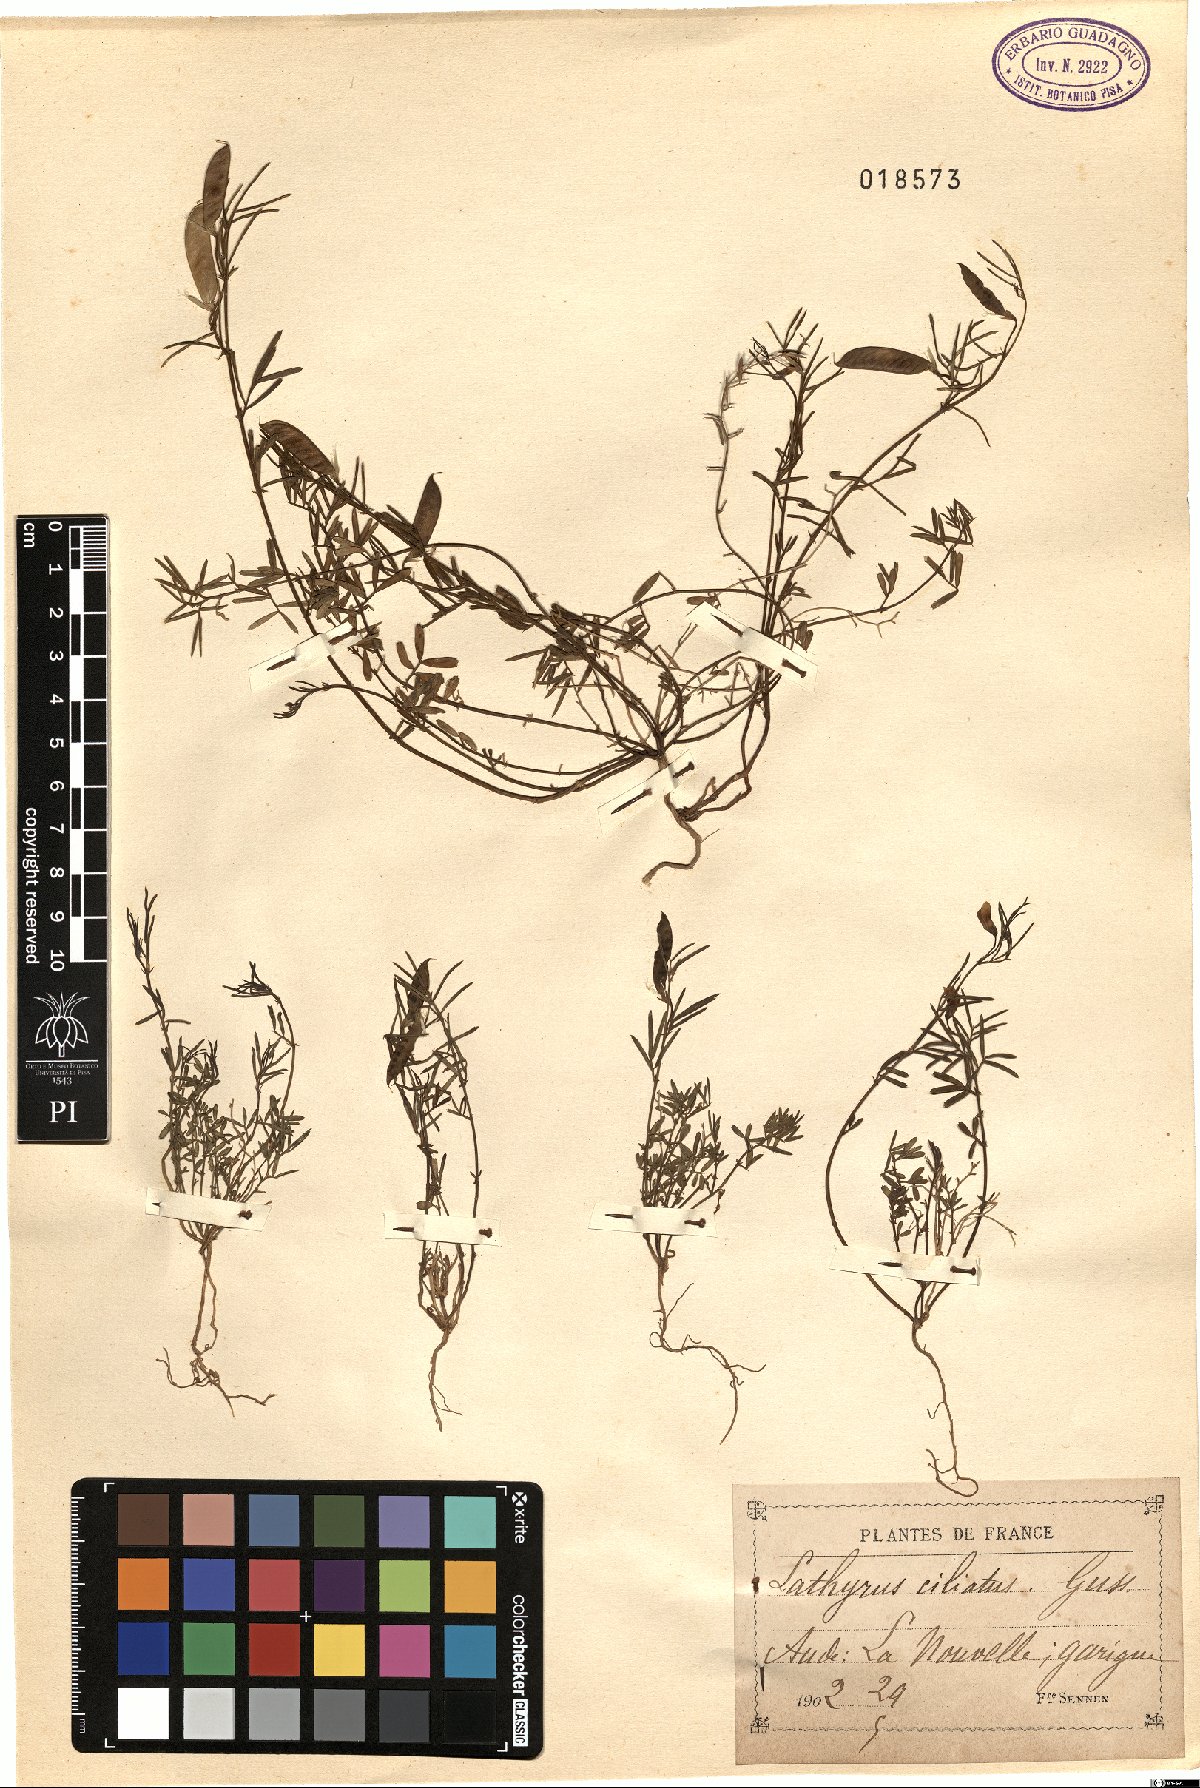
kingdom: Plantae
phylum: Tracheophyta
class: Magnoliopsida
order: Fabales
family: Fabaceae
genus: Lathyrus
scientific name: Lathyrus saxatilis
